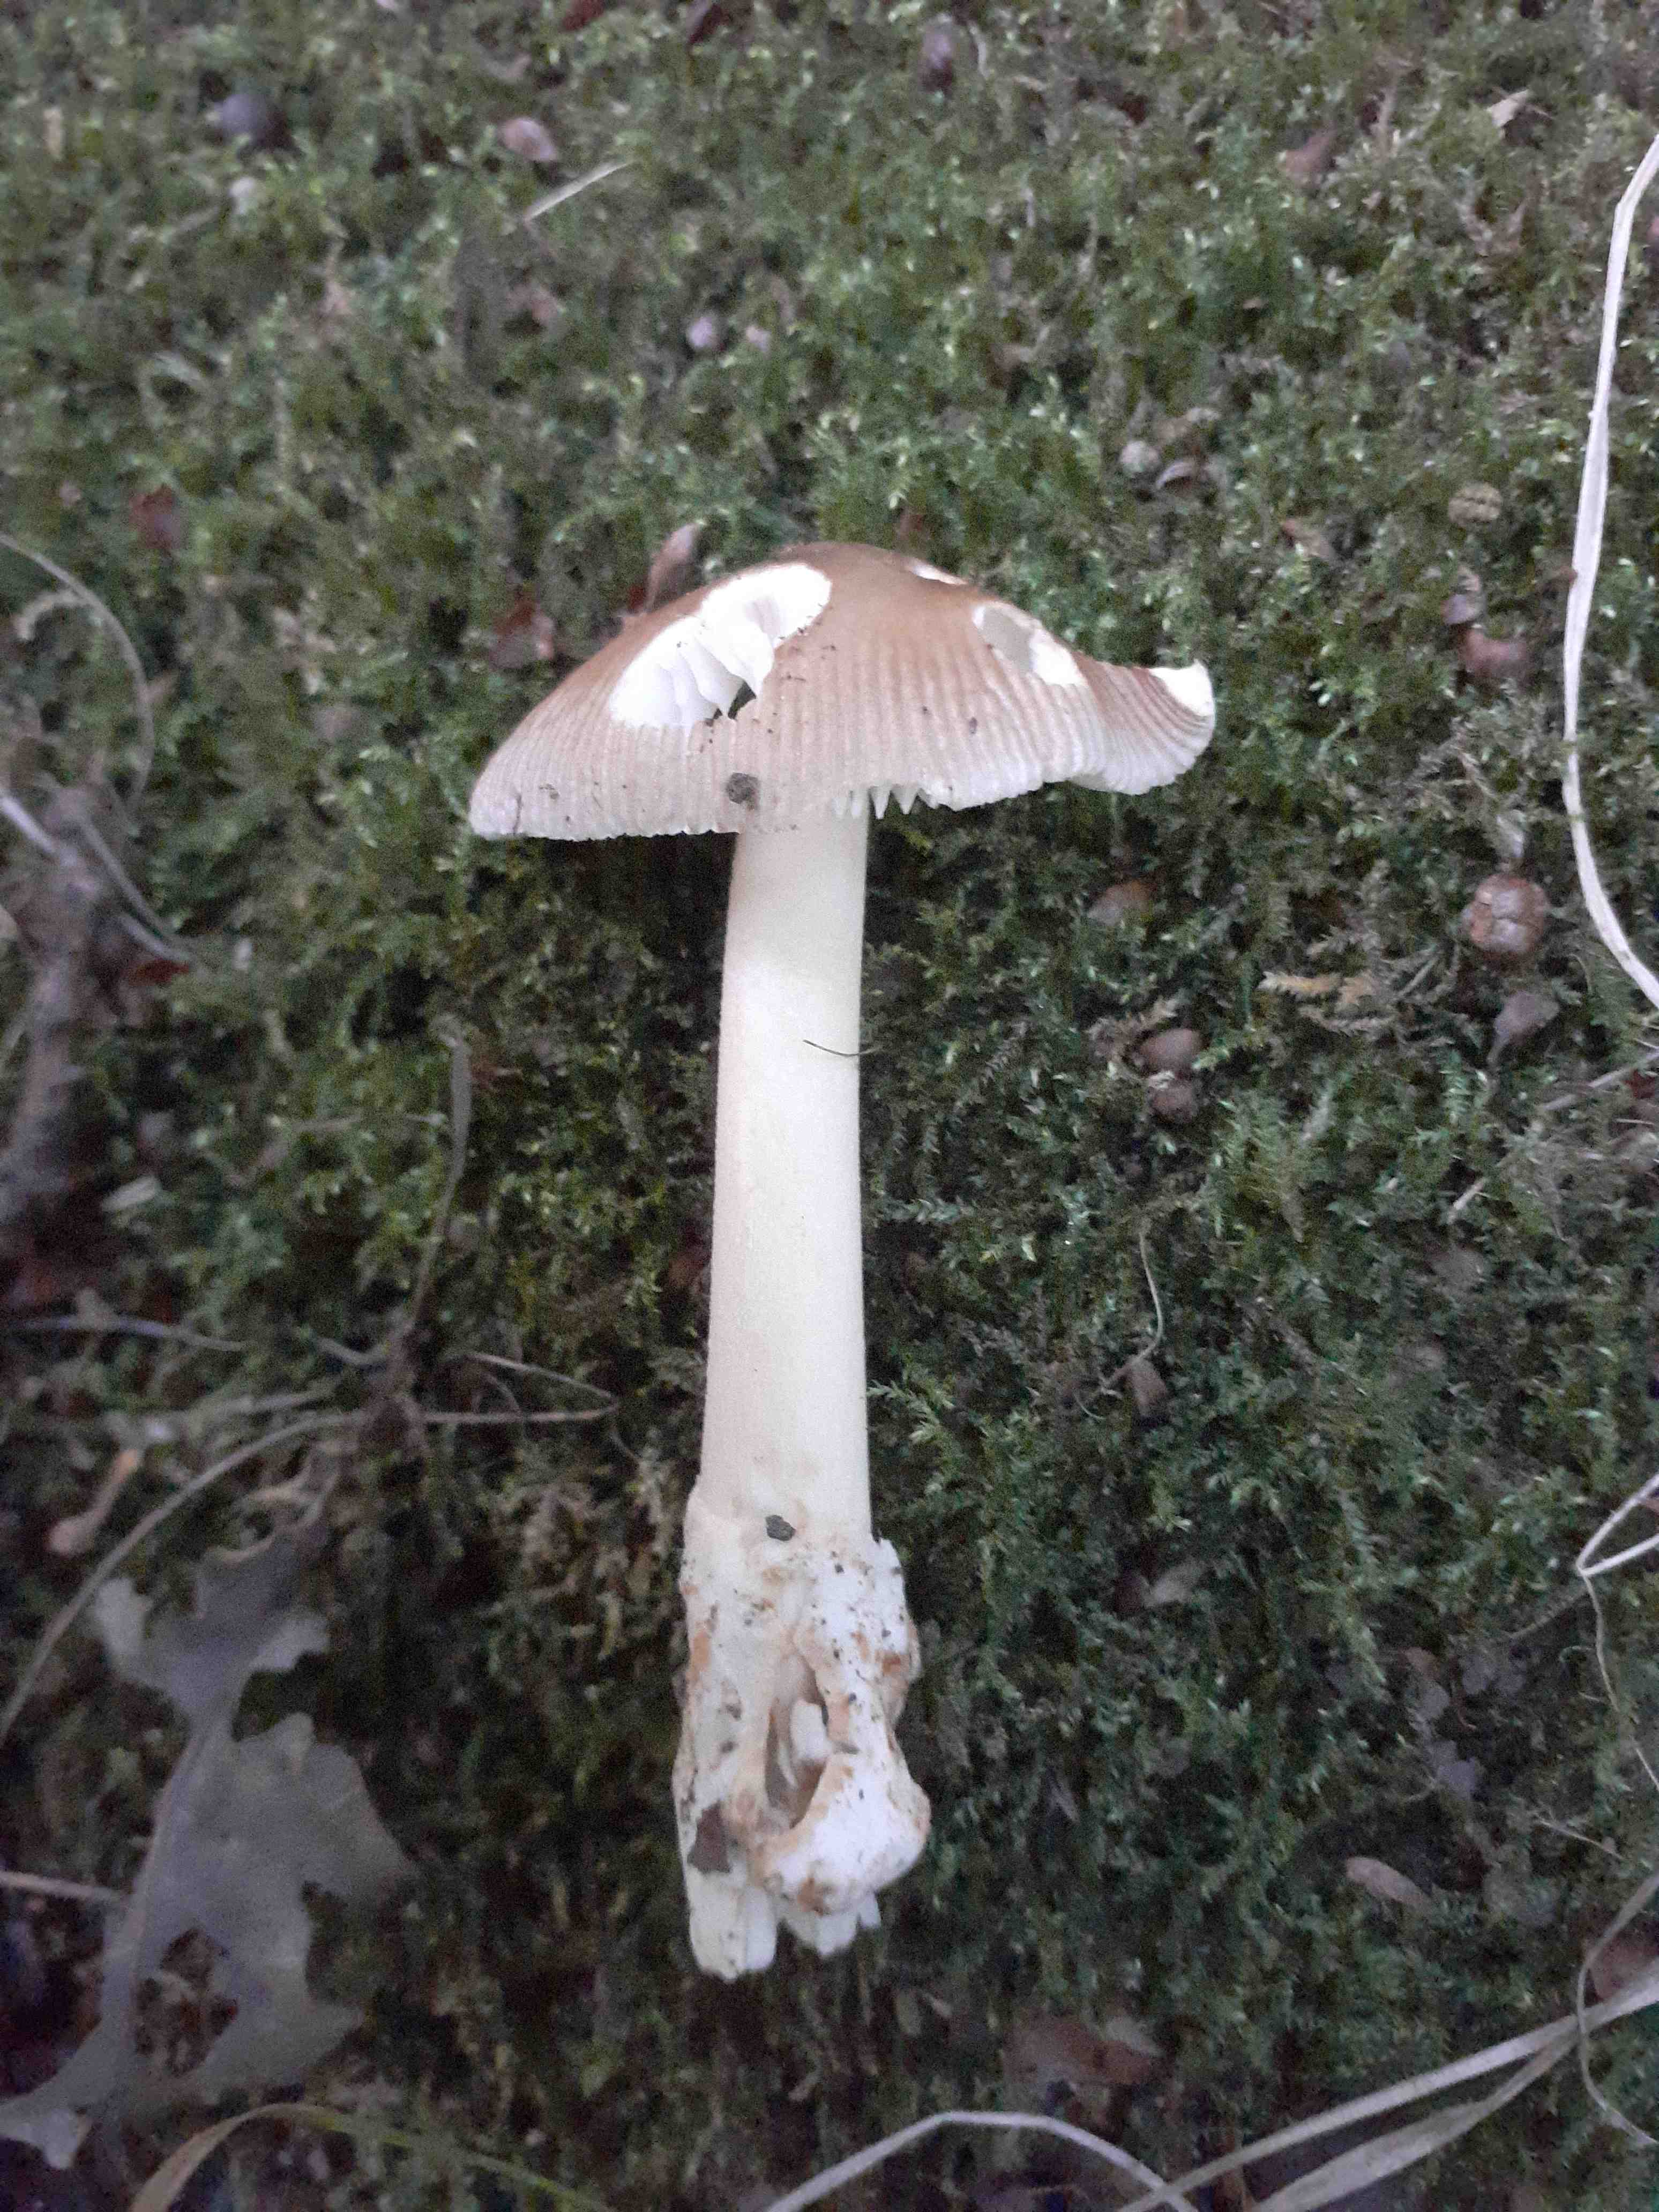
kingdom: Fungi
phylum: Basidiomycota
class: Agaricomycetes
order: Agaricales
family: Amanitaceae
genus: Amanita
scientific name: Amanita fulvoides
